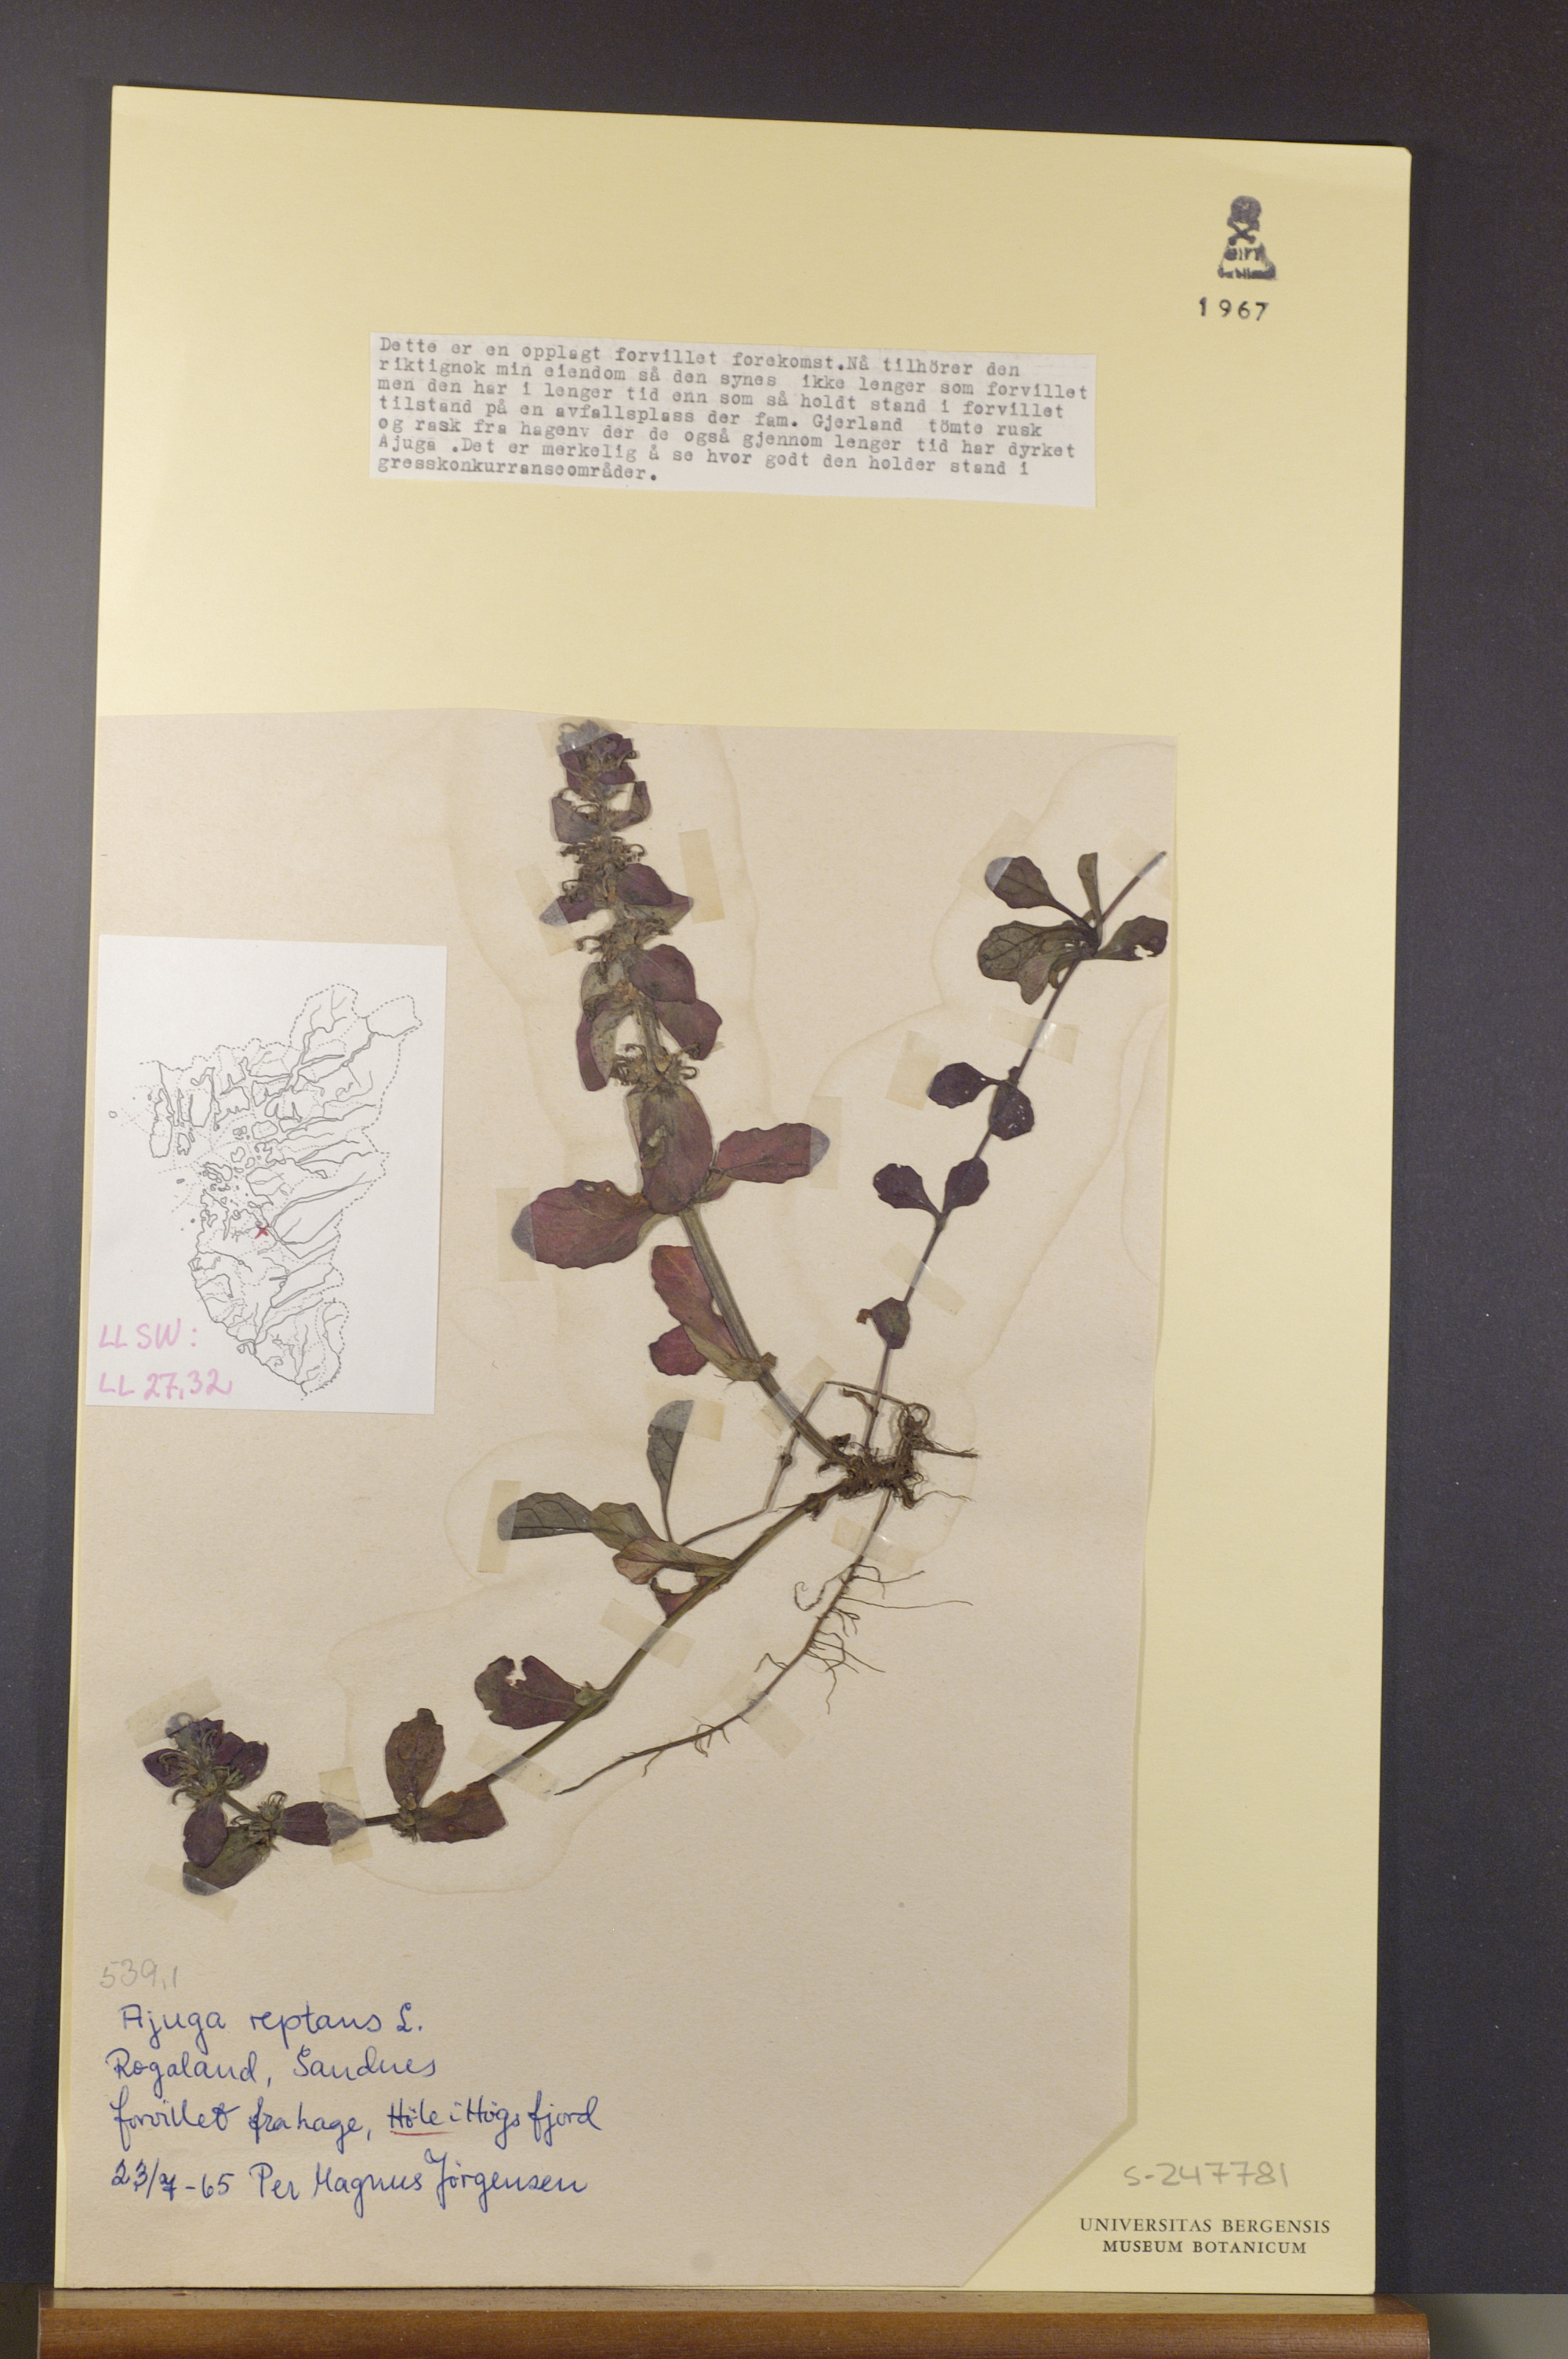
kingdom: Plantae
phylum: Tracheophyta
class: Magnoliopsida
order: Lamiales
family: Lamiaceae
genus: Ajuga
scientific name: Ajuga reptans
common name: Bugle
